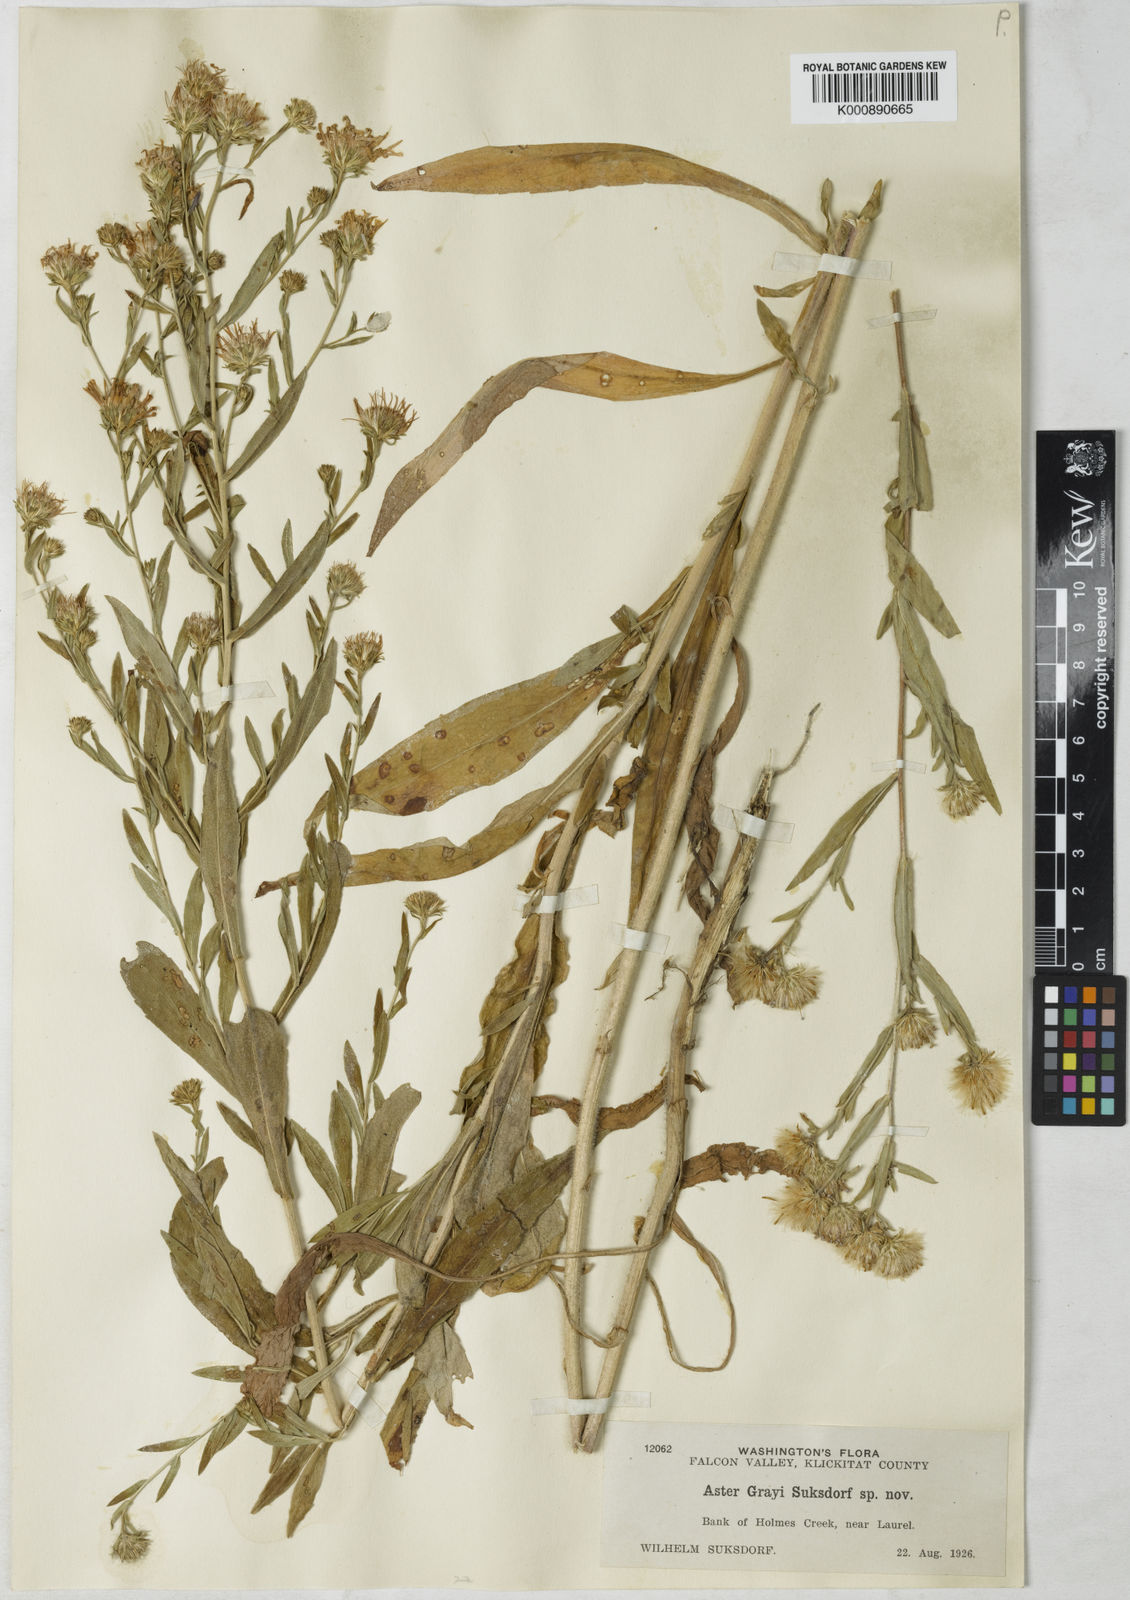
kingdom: Plantae
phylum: Tracheophyta
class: Magnoliopsida
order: Asterales
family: Asteraceae
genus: Symphyotrichum
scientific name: Symphyotrichum subspicatum
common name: Douglas' aster
